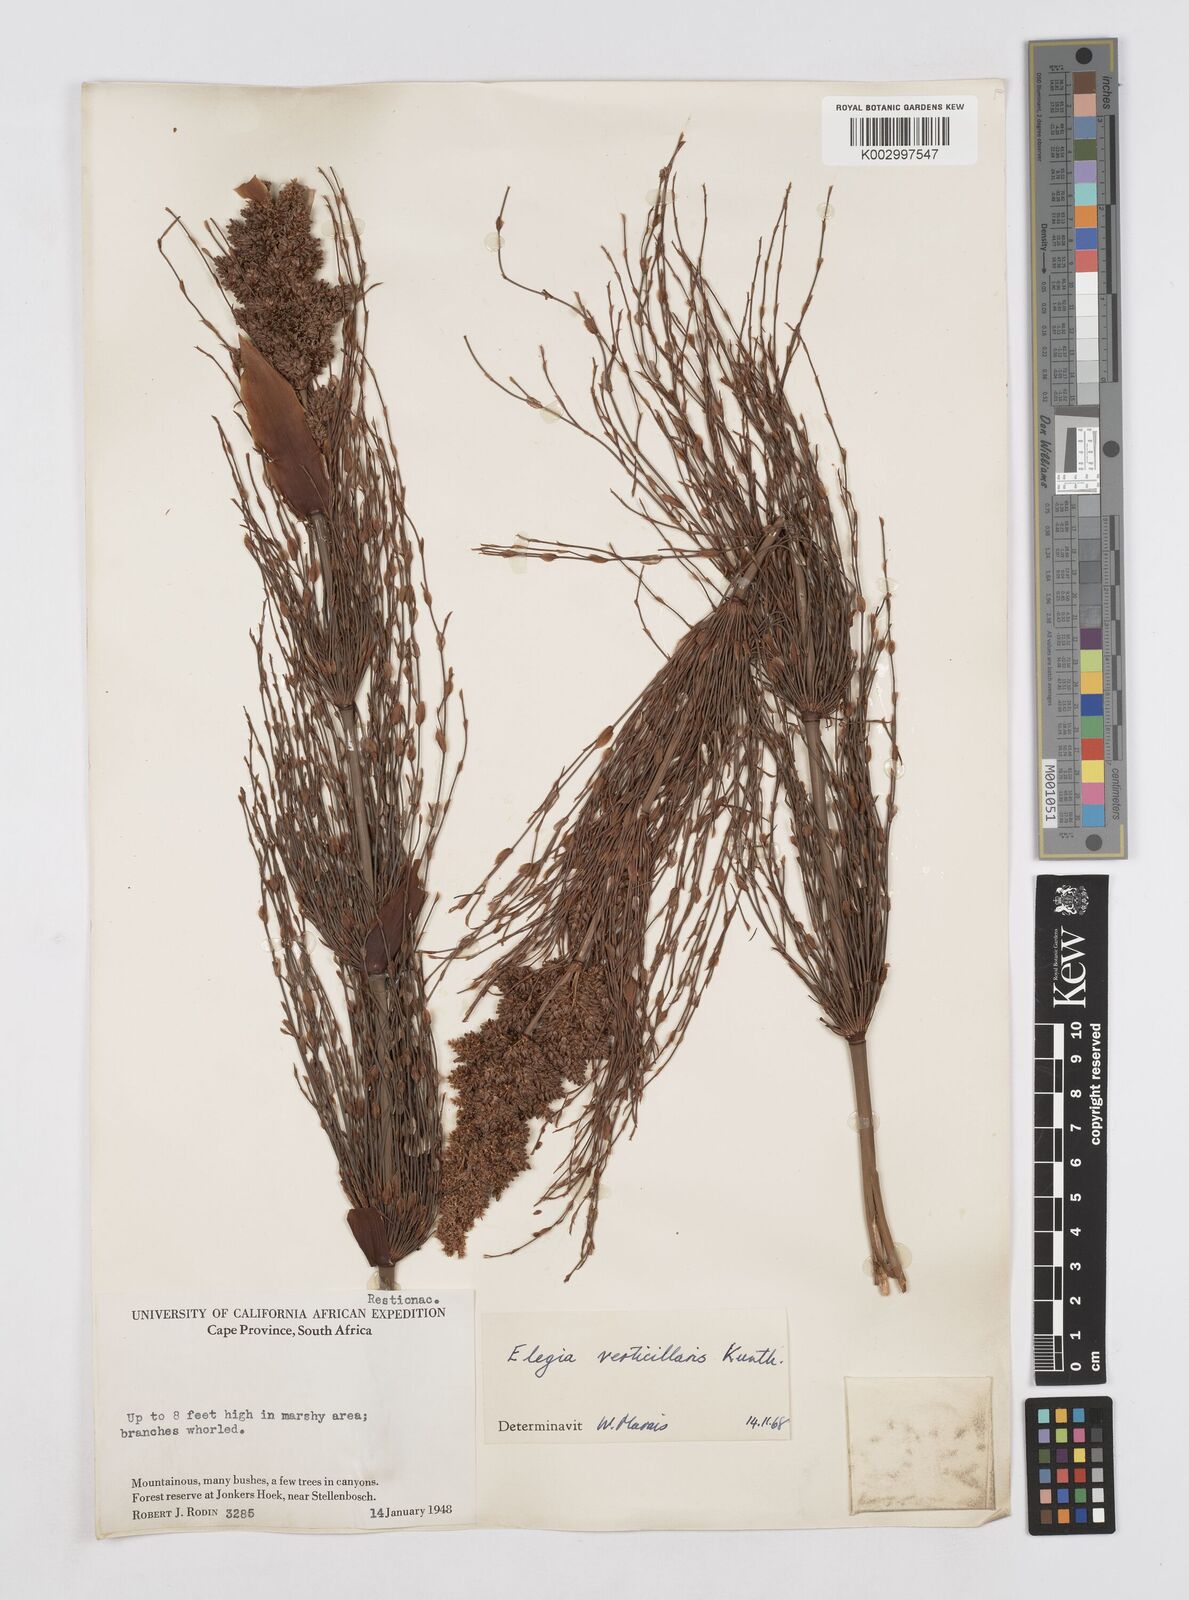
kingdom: Plantae
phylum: Tracheophyta
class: Liliopsida
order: Poales
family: Restionaceae
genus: Elegia
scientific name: Elegia capensis
